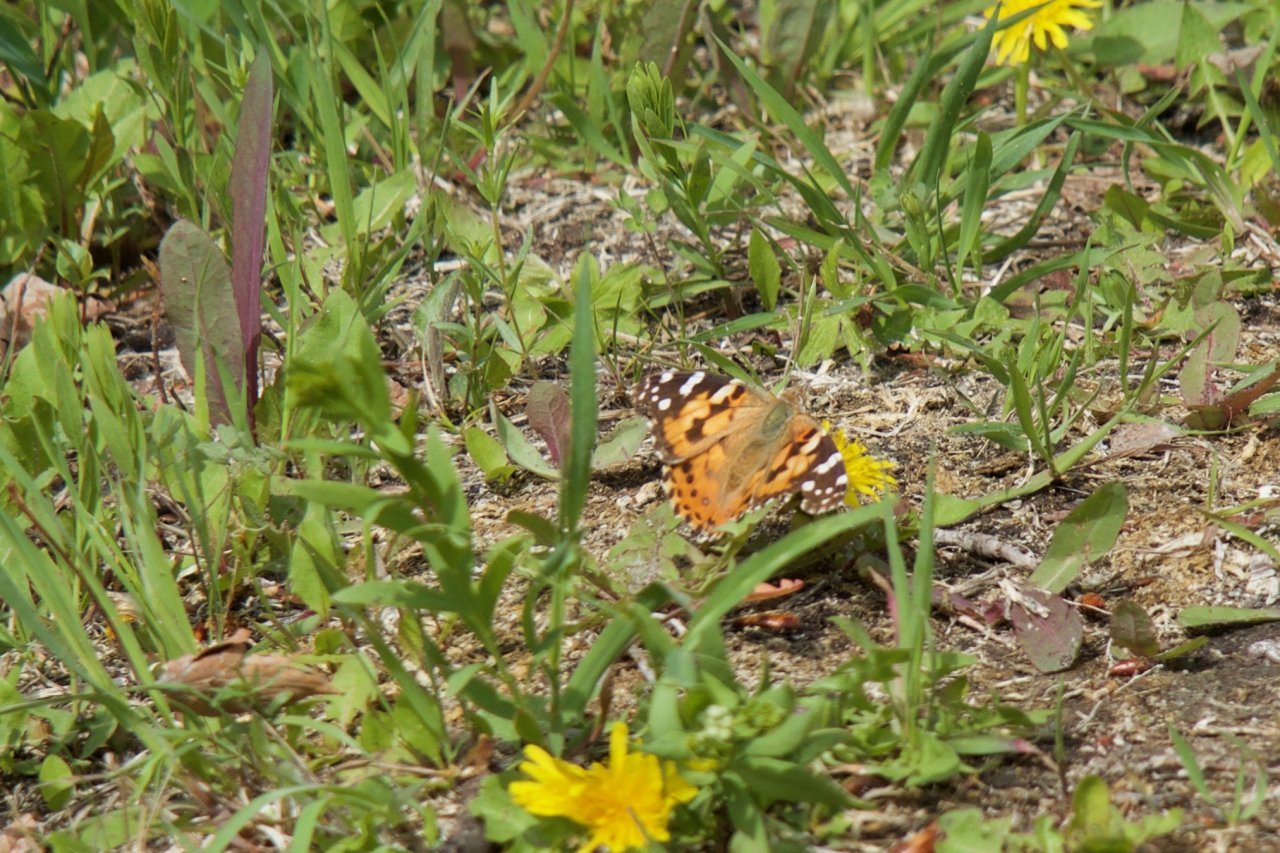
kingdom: Animalia
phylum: Arthropoda
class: Insecta
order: Lepidoptera
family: Nymphalidae
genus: Vanessa
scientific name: Vanessa cardui
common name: Painted Lady
